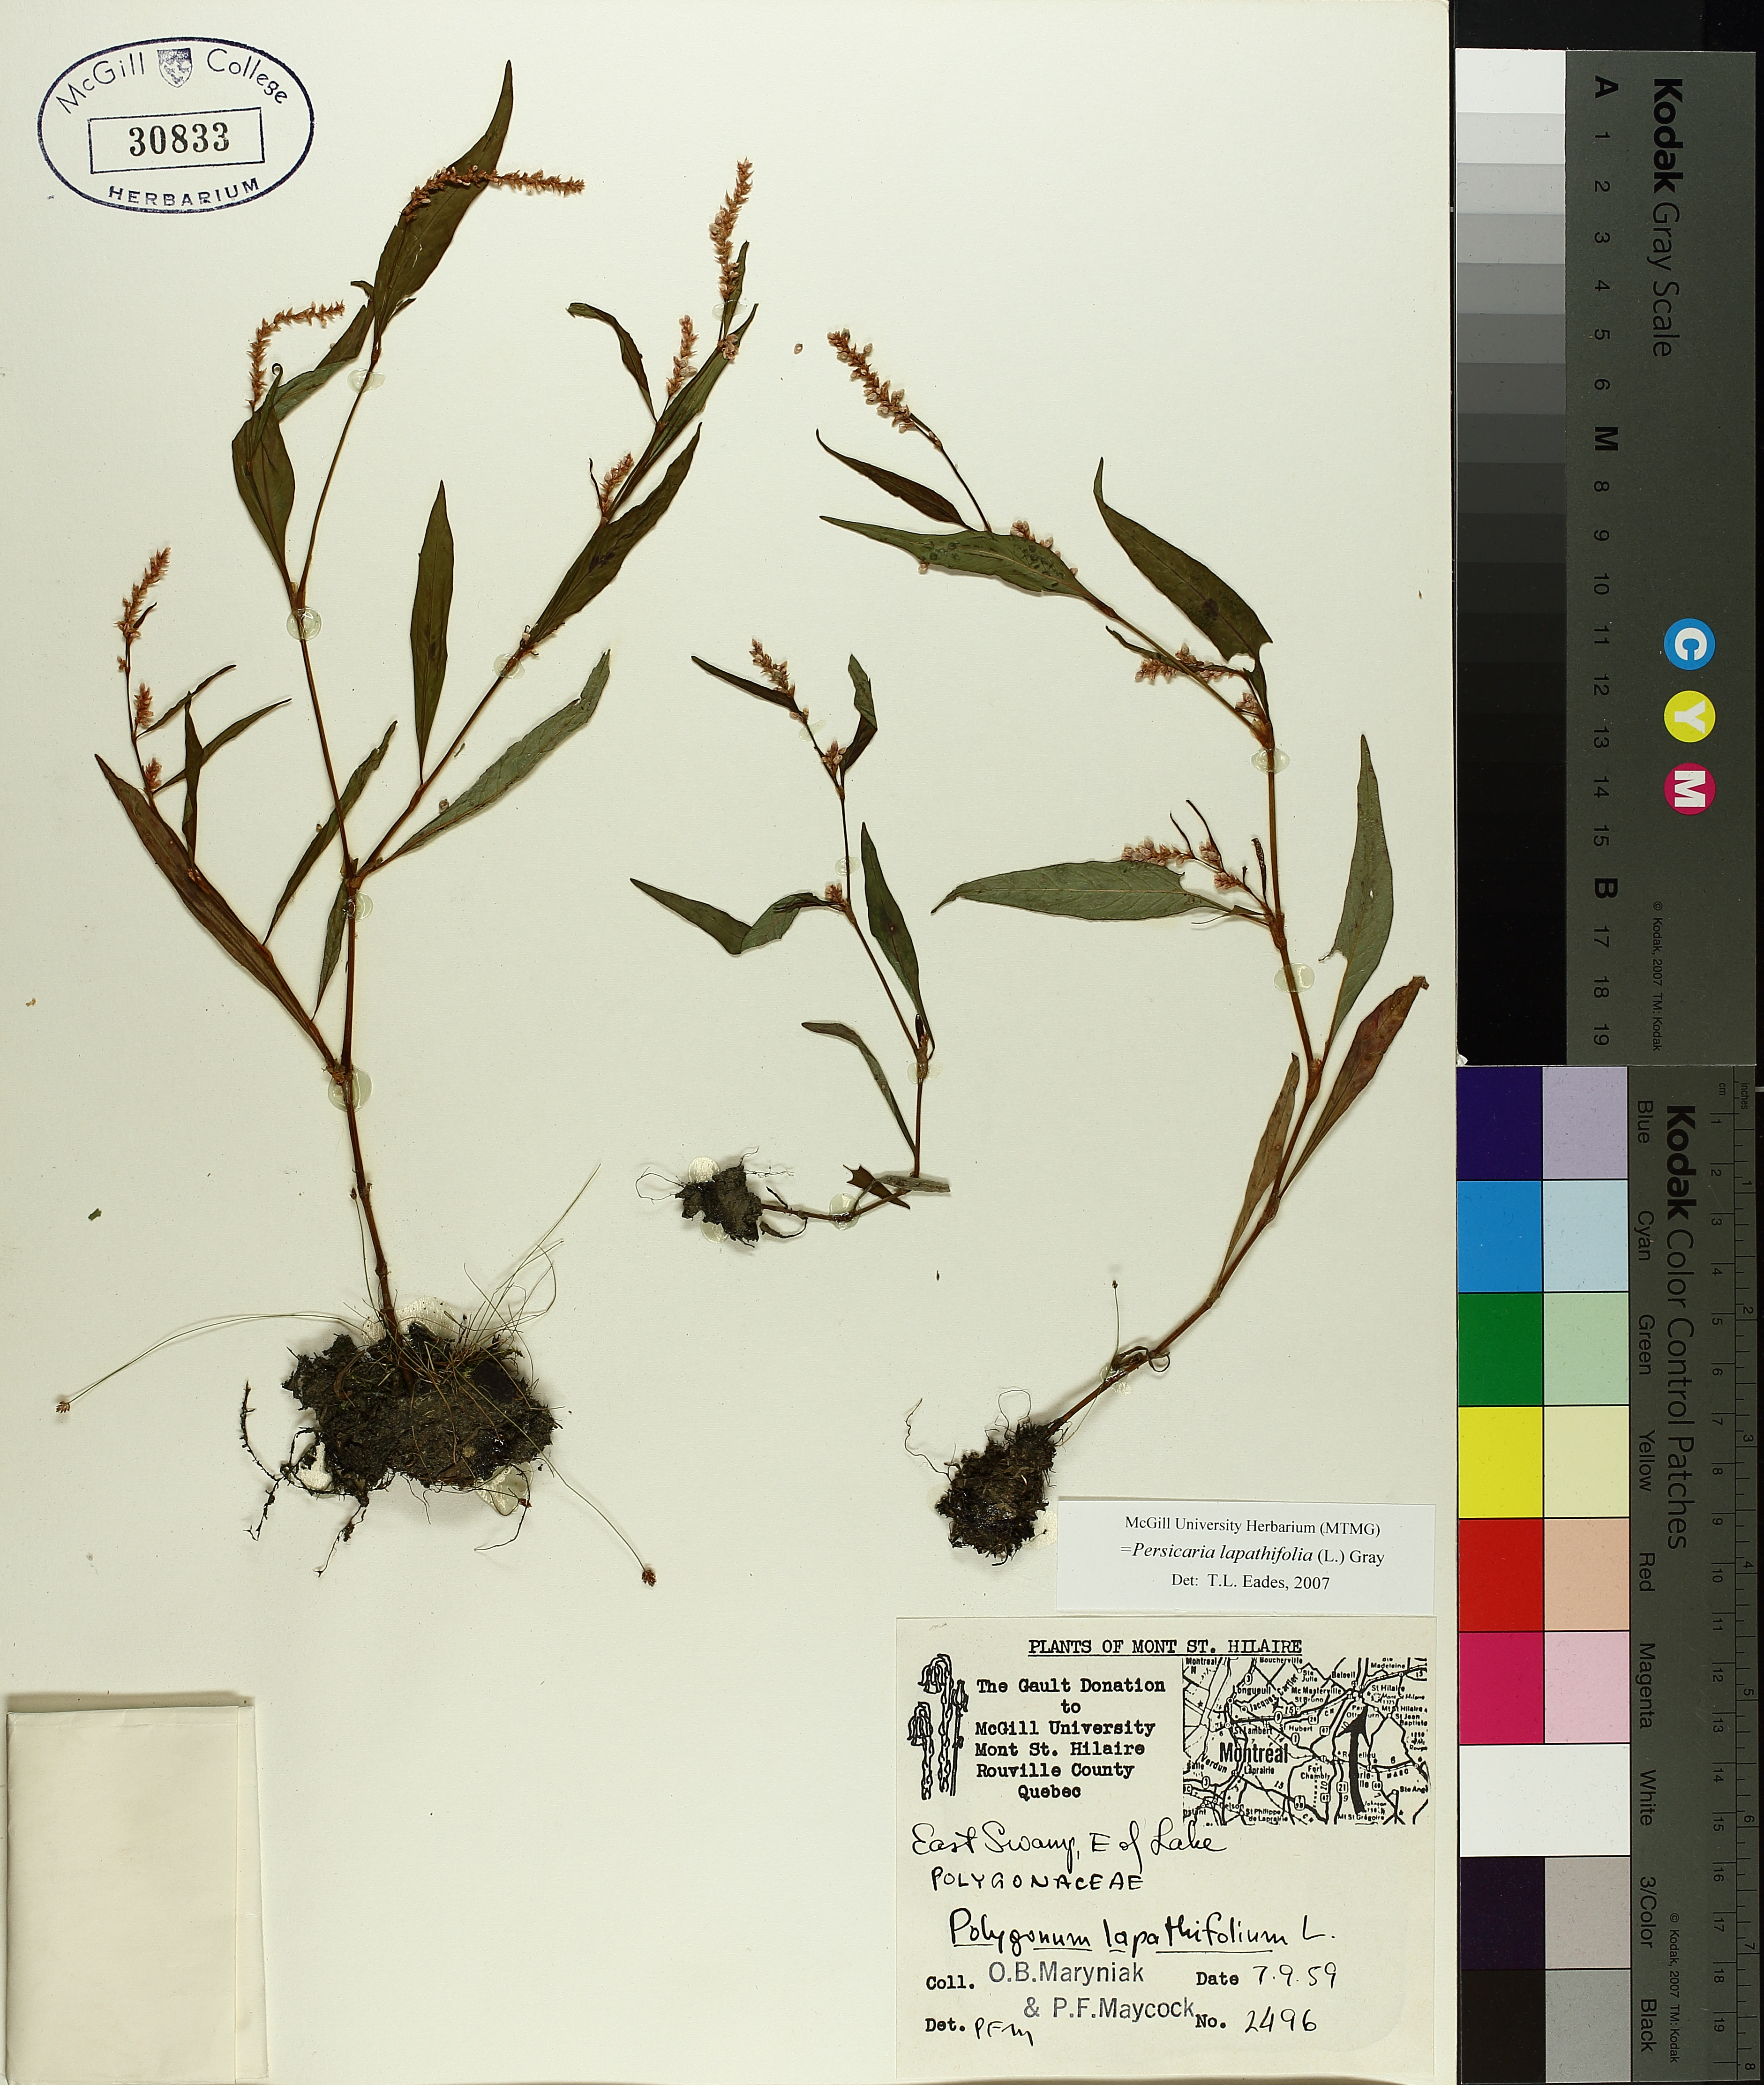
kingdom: Plantae
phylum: Tracheophyta
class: Magnoliopsida
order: Caryophyllales
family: Polygonaceae
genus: Persicaria
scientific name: Persicaria lapathifolia
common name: Curlytop knotweed
